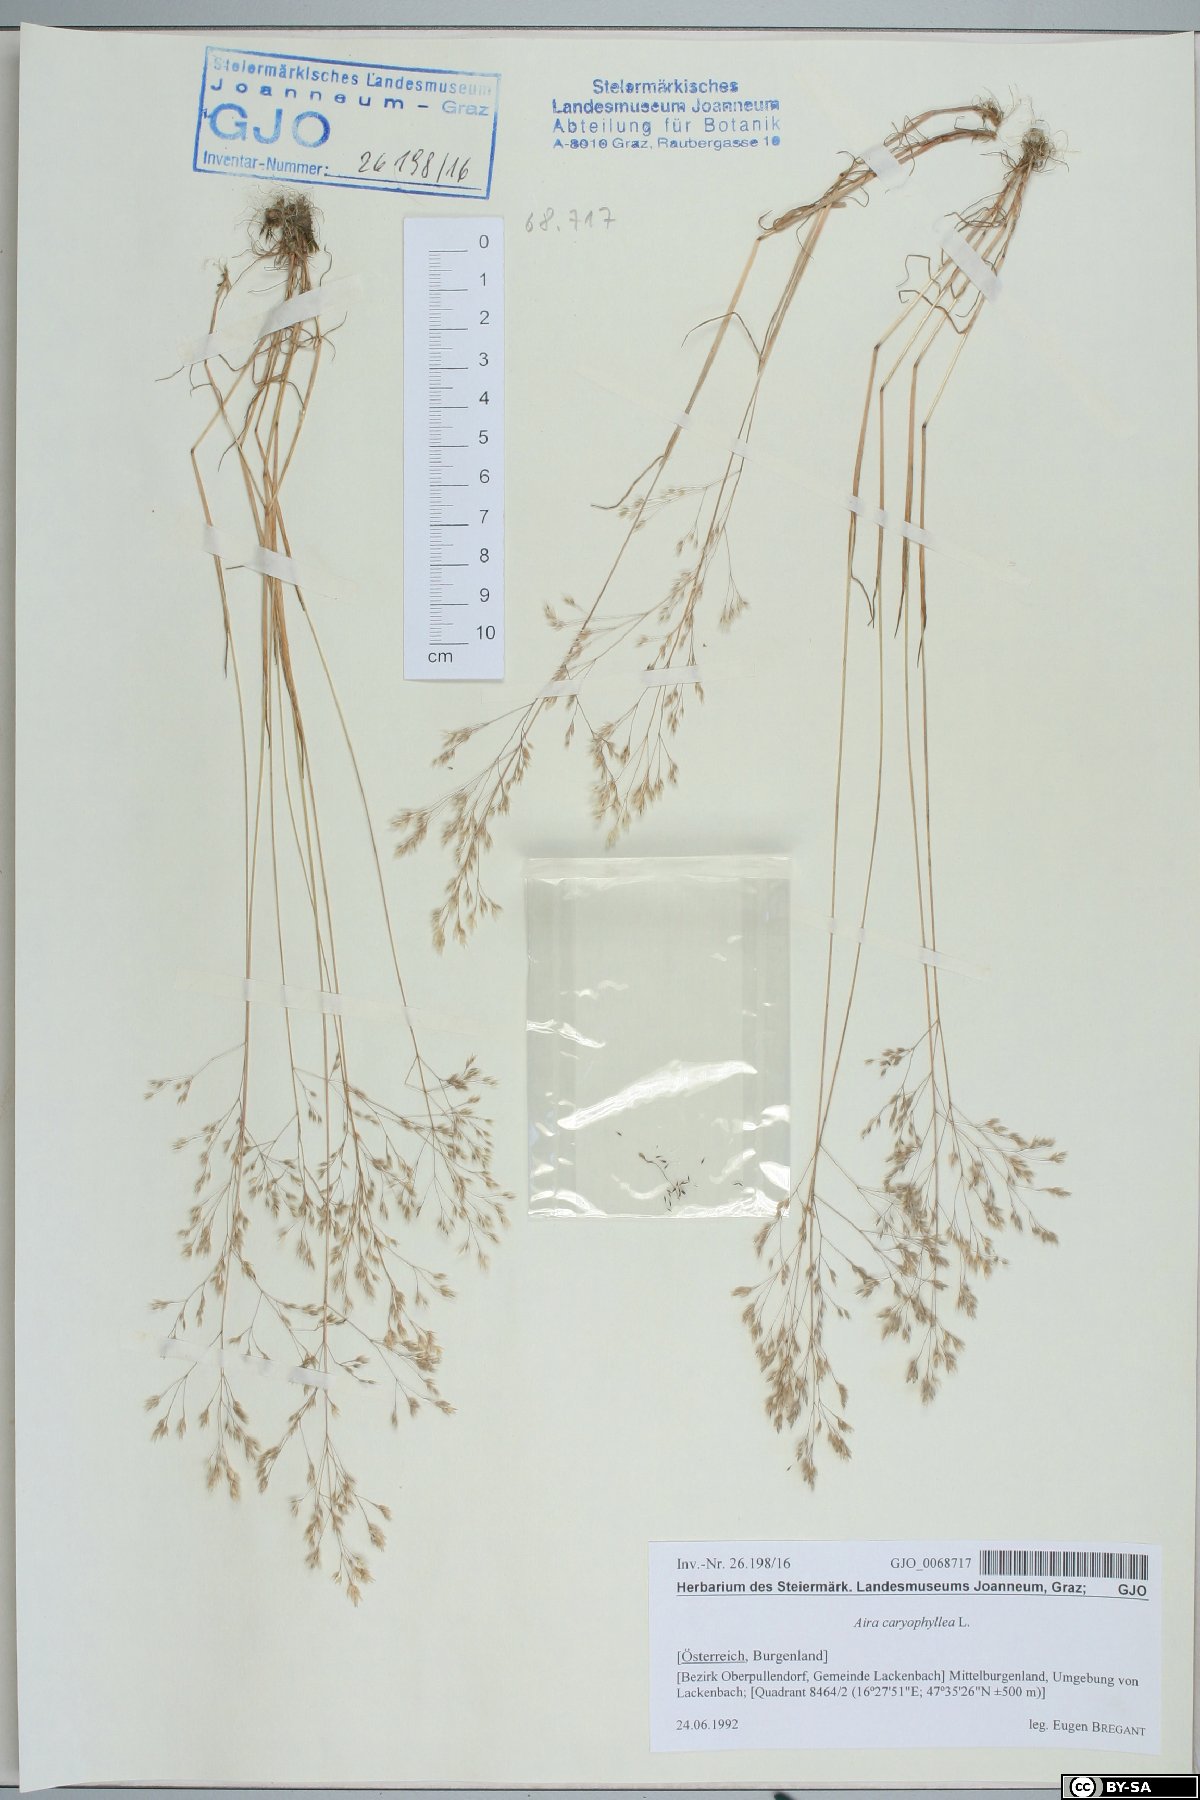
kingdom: Plantae
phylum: Tracheophyta
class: Liliopsida
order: Poales
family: Poaceae
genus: Aira
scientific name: Aira caryophyllea
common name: Silver hairgrass
